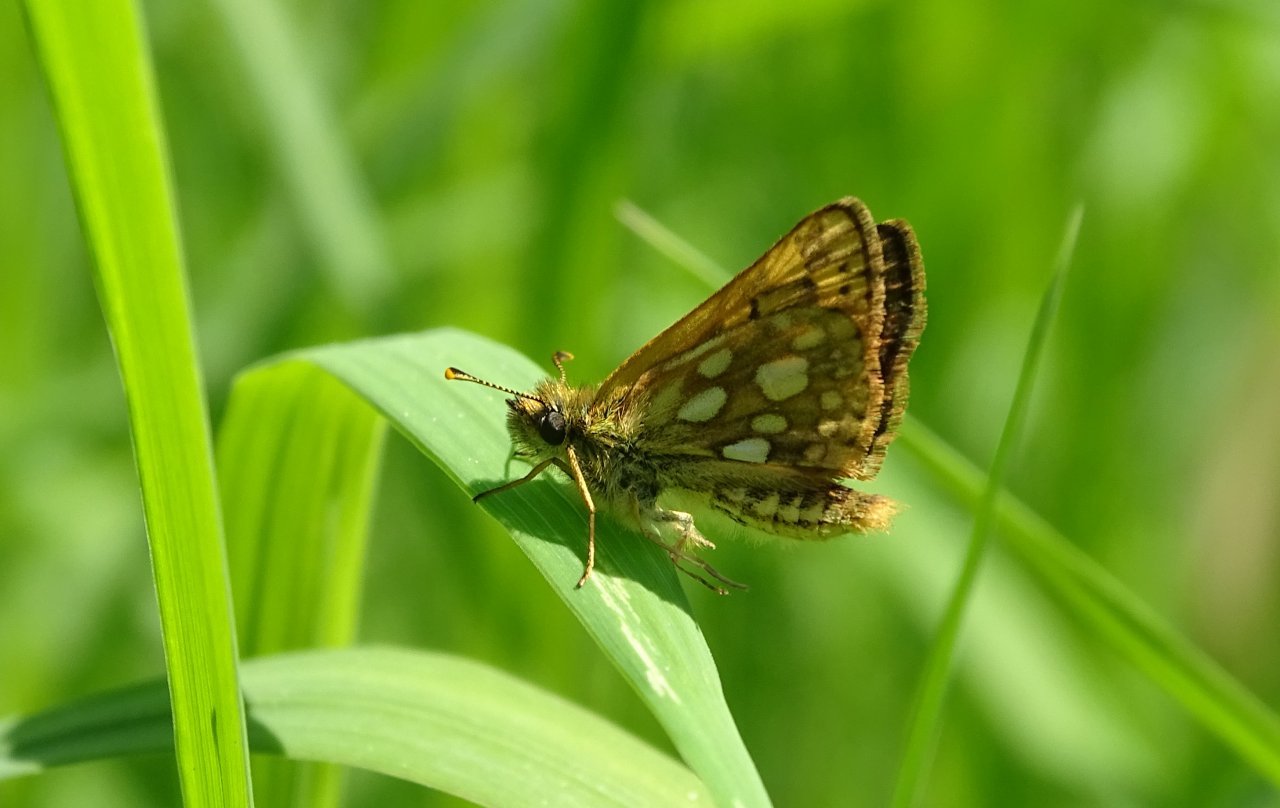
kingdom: Animalia
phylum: Arthropoda
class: Insecta
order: Lepidoptera
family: Hesperiidae
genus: Carterocephalus
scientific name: Carterocephalus palaemon
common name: Chequered Skipper
